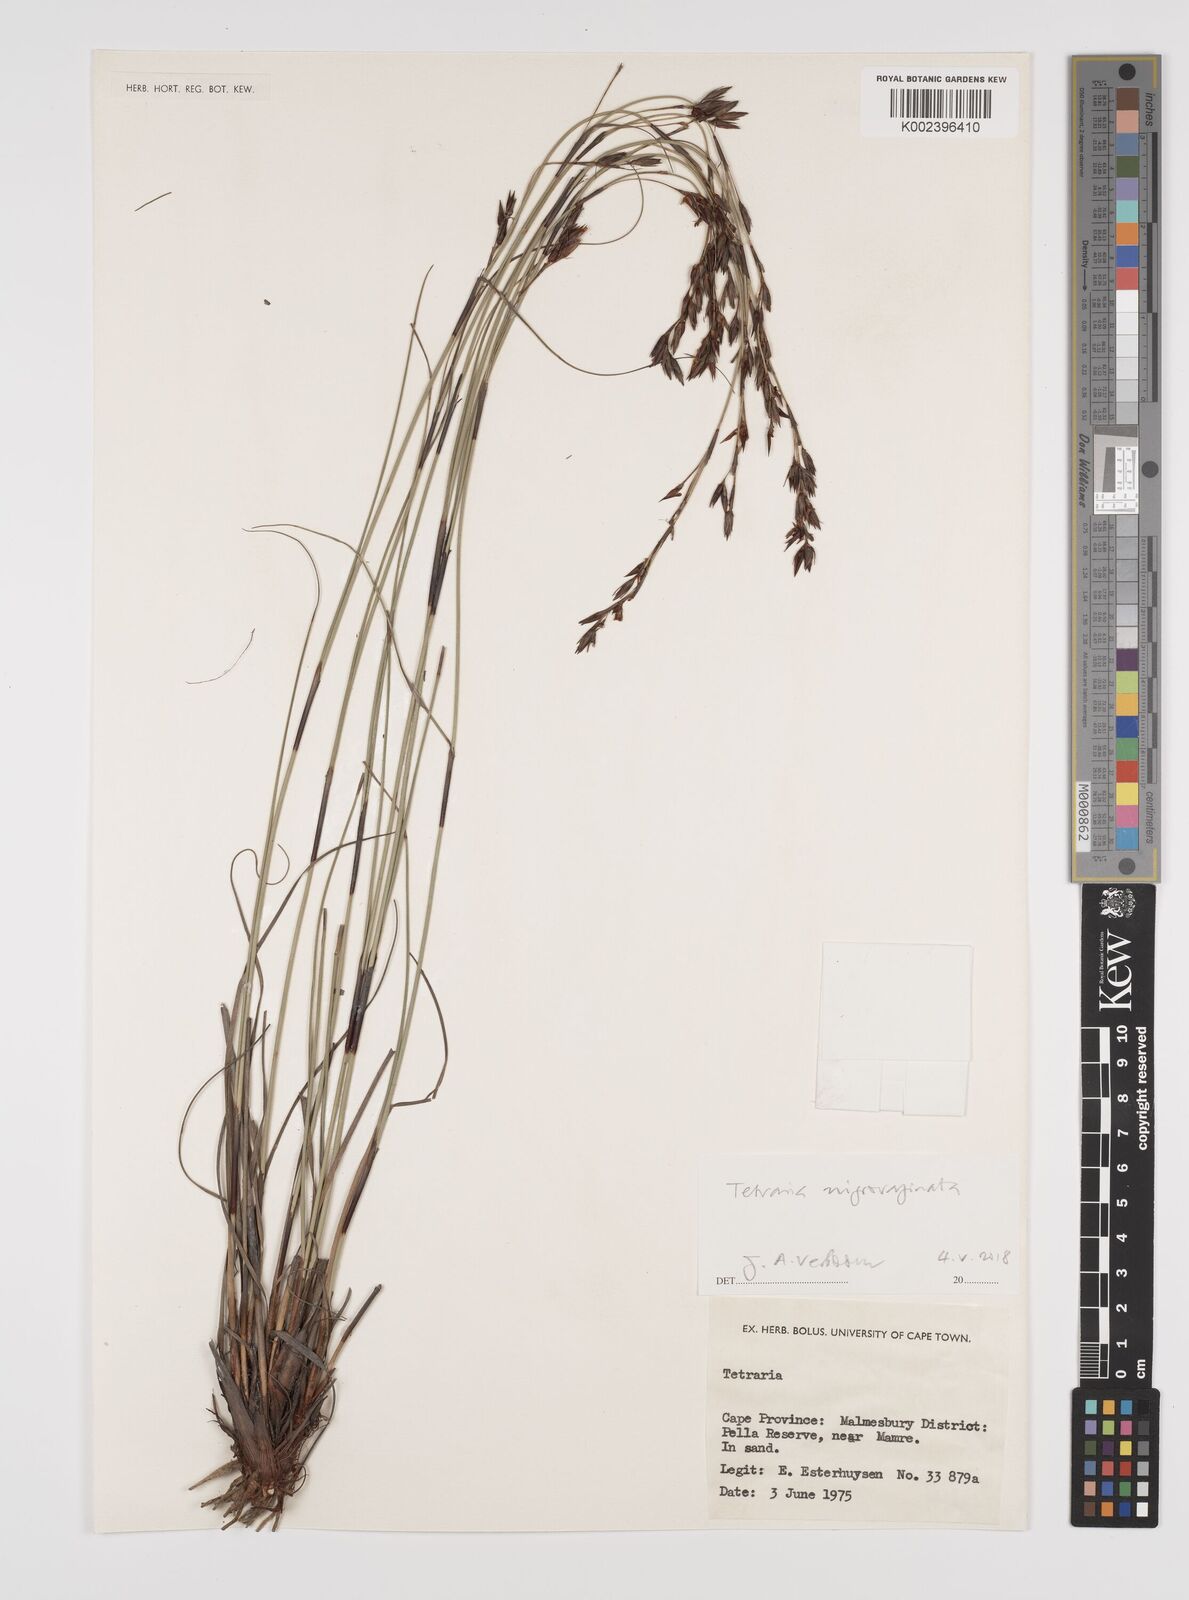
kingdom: Plantae
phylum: Tracheophyta
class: Liliopsida
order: Poales
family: Cyperaceae
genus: Tetraria
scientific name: Tetraria
